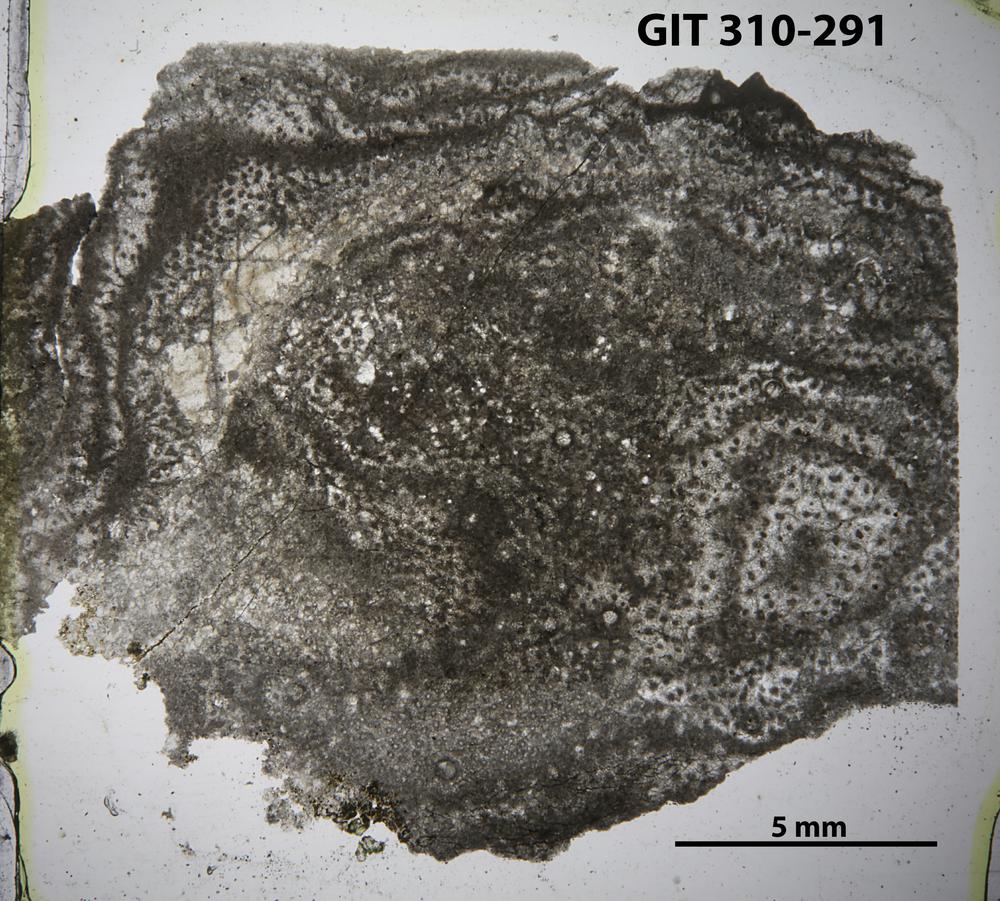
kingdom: Animalia
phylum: Porifera
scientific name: Porifera
